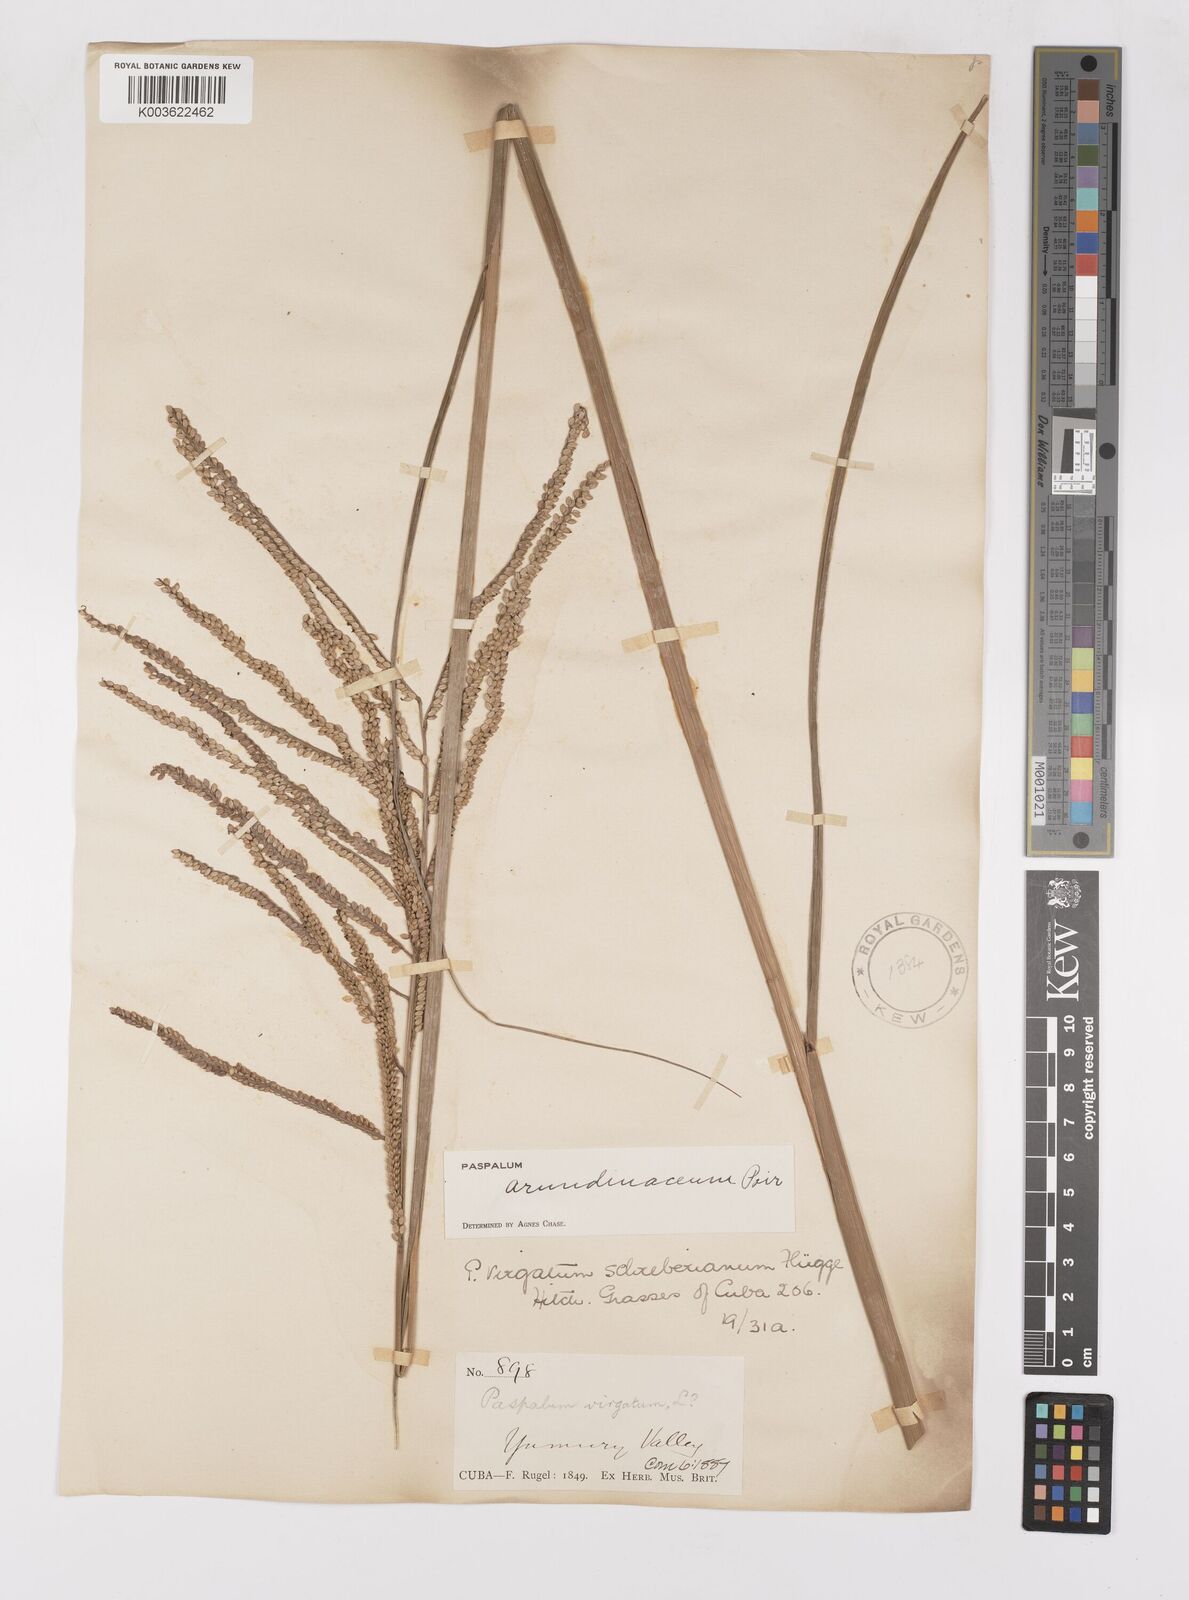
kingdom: Plantae
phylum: Tracheophyta
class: Liliopsida
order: Poales
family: Poaceae
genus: Paspalum
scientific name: Paspalum arundinaceum
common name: Thick ditch crowngrass
